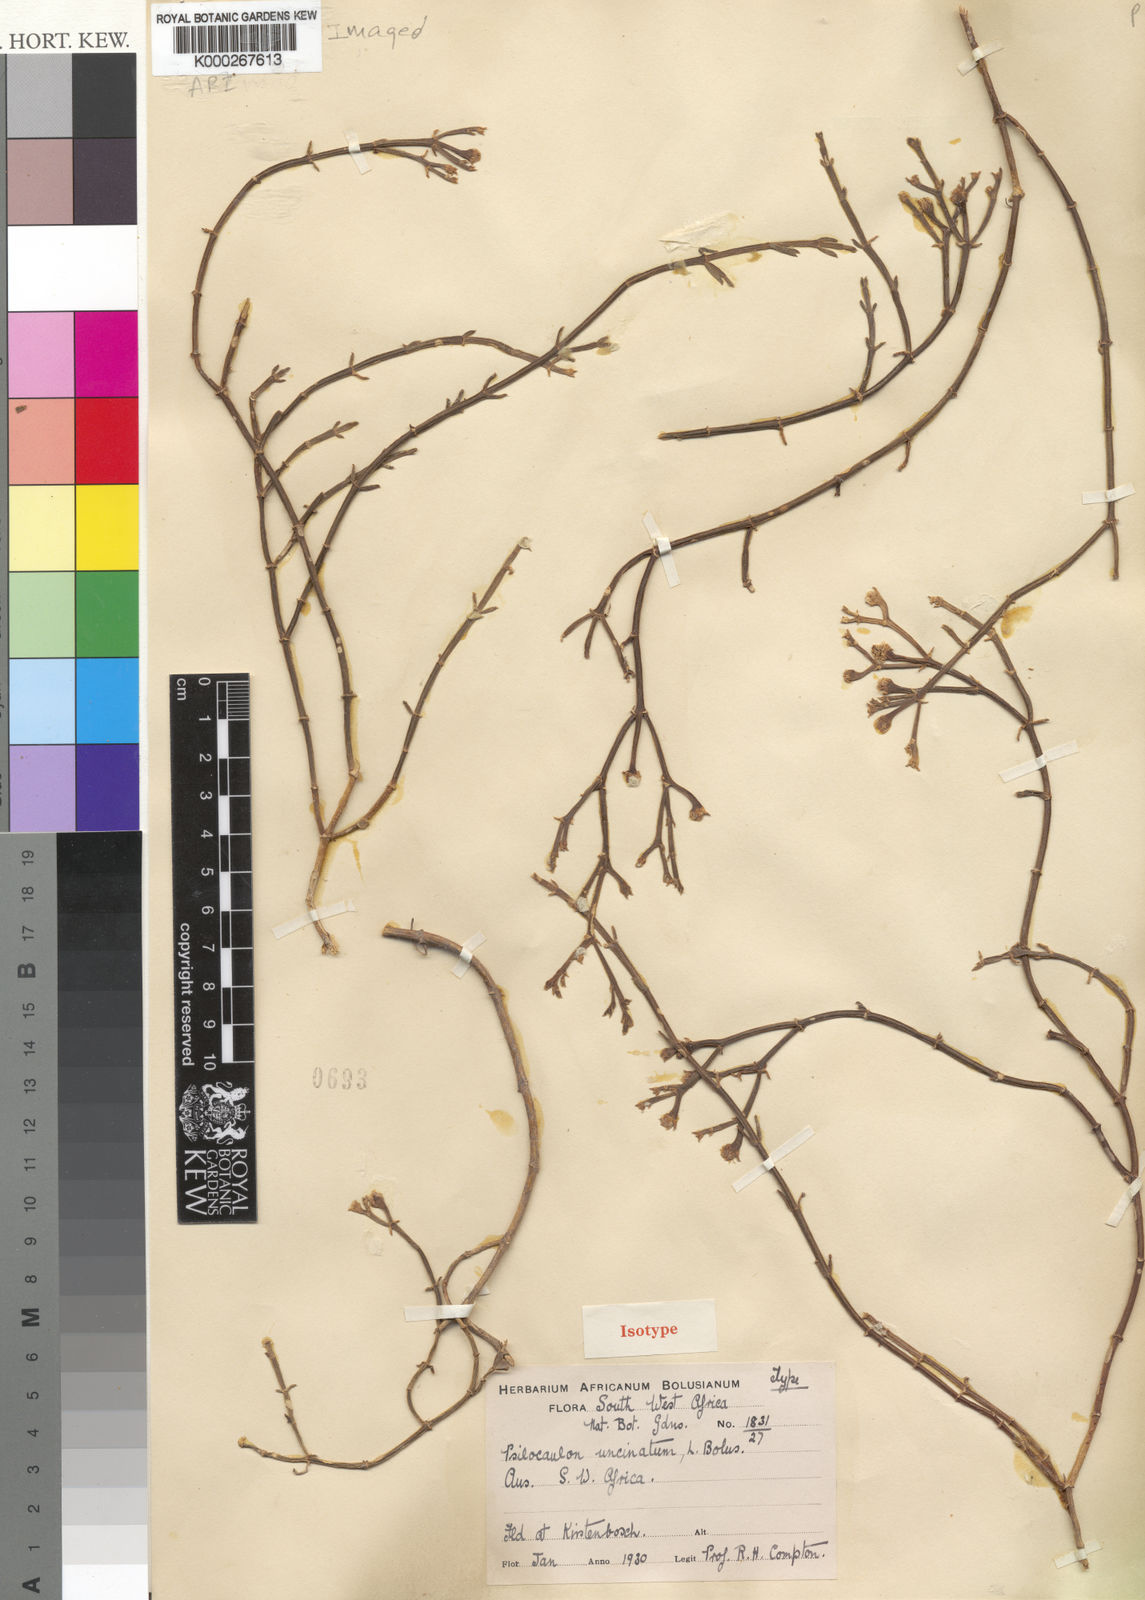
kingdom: Plantae
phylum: Tracheophyta
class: Magnoliopsida
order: Caryophyllales
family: Aizoaceae
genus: Mesembryanthemum
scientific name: Mesembryanthemum coriarium
